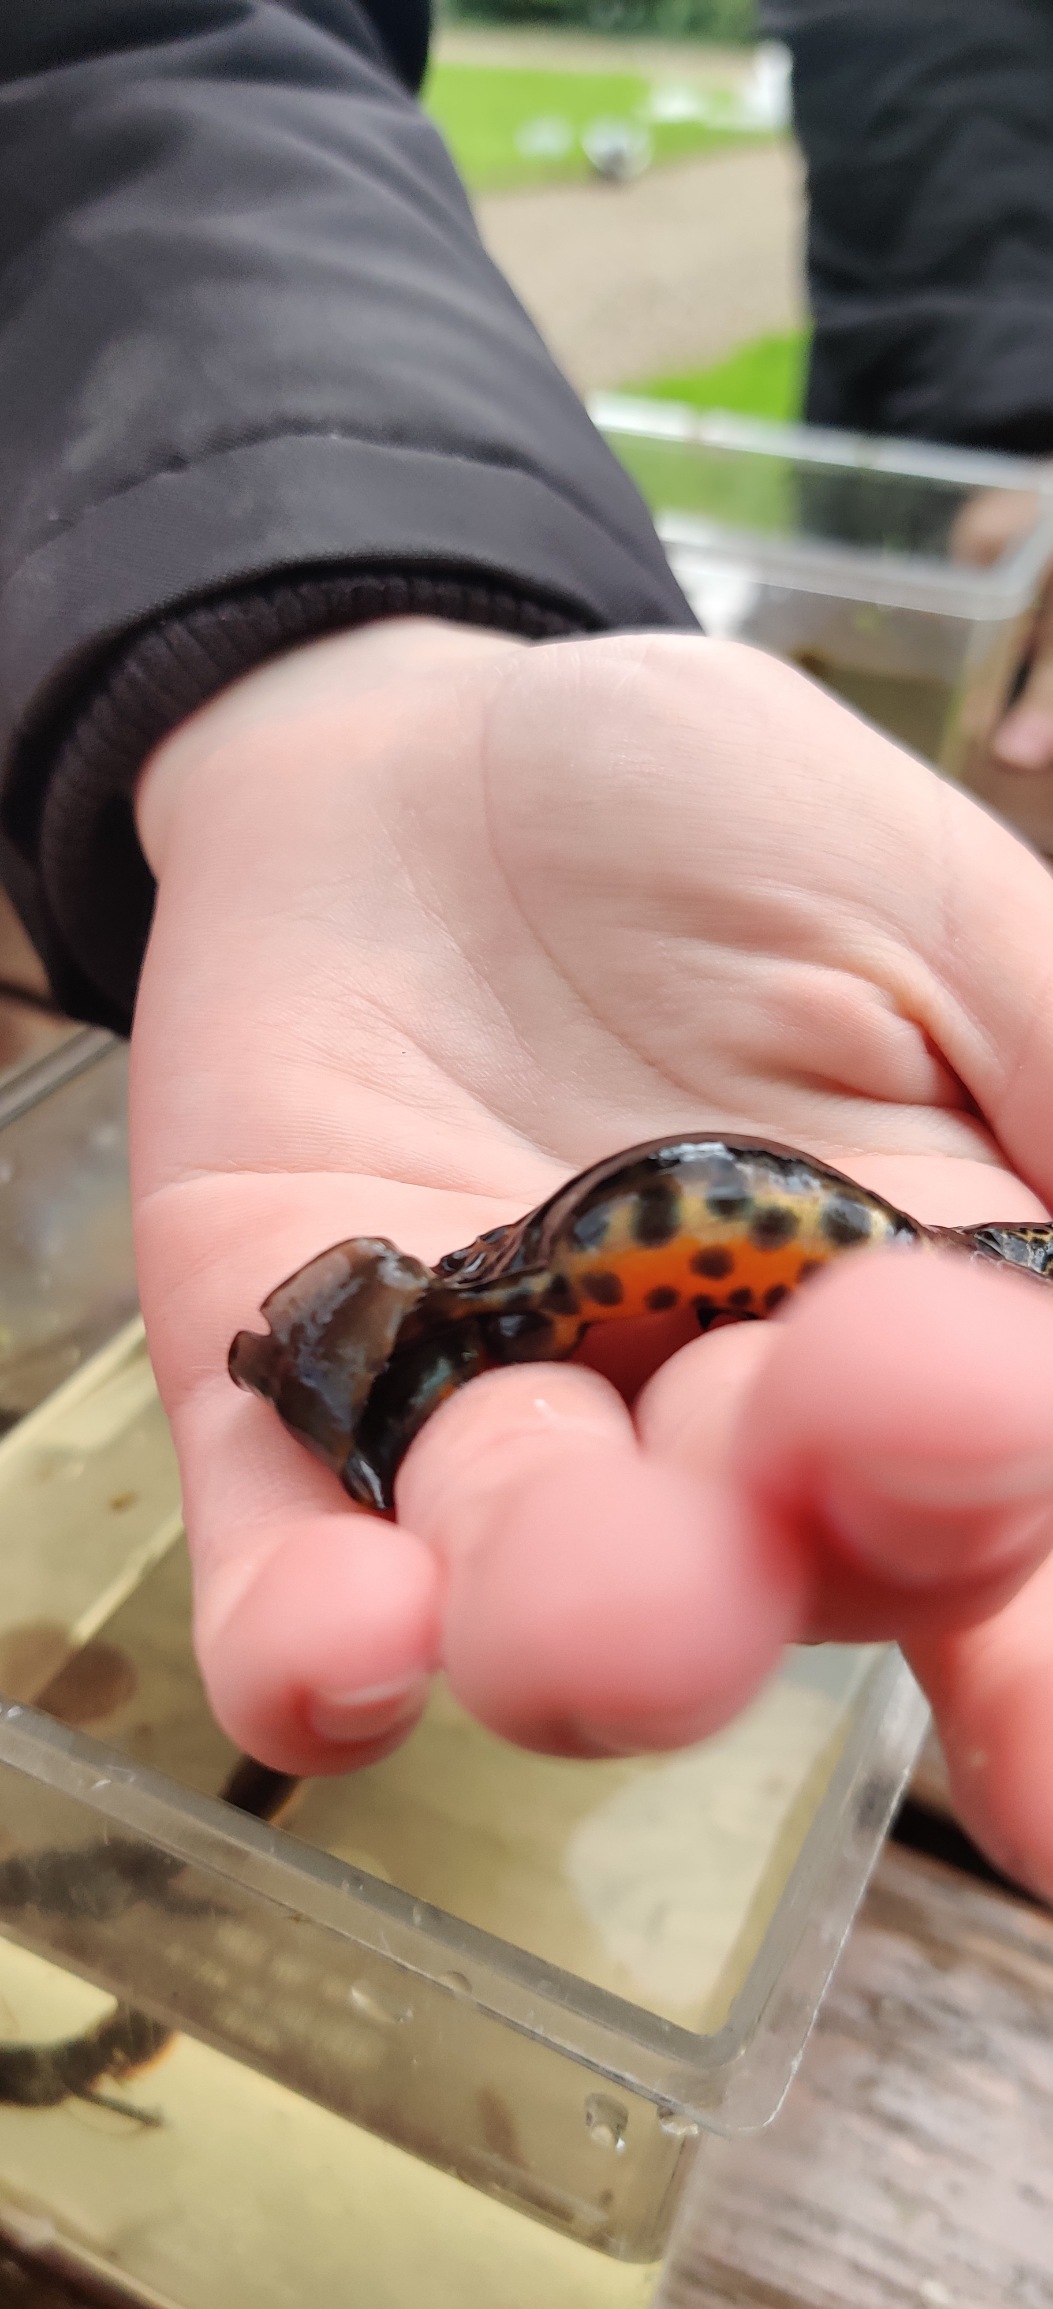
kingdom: Animalia
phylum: Chordata
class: Amphibia
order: Caudata
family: Salamandridae
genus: Lissotriton
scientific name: Lissotriton vulgaris
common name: Lille vandsalamander
